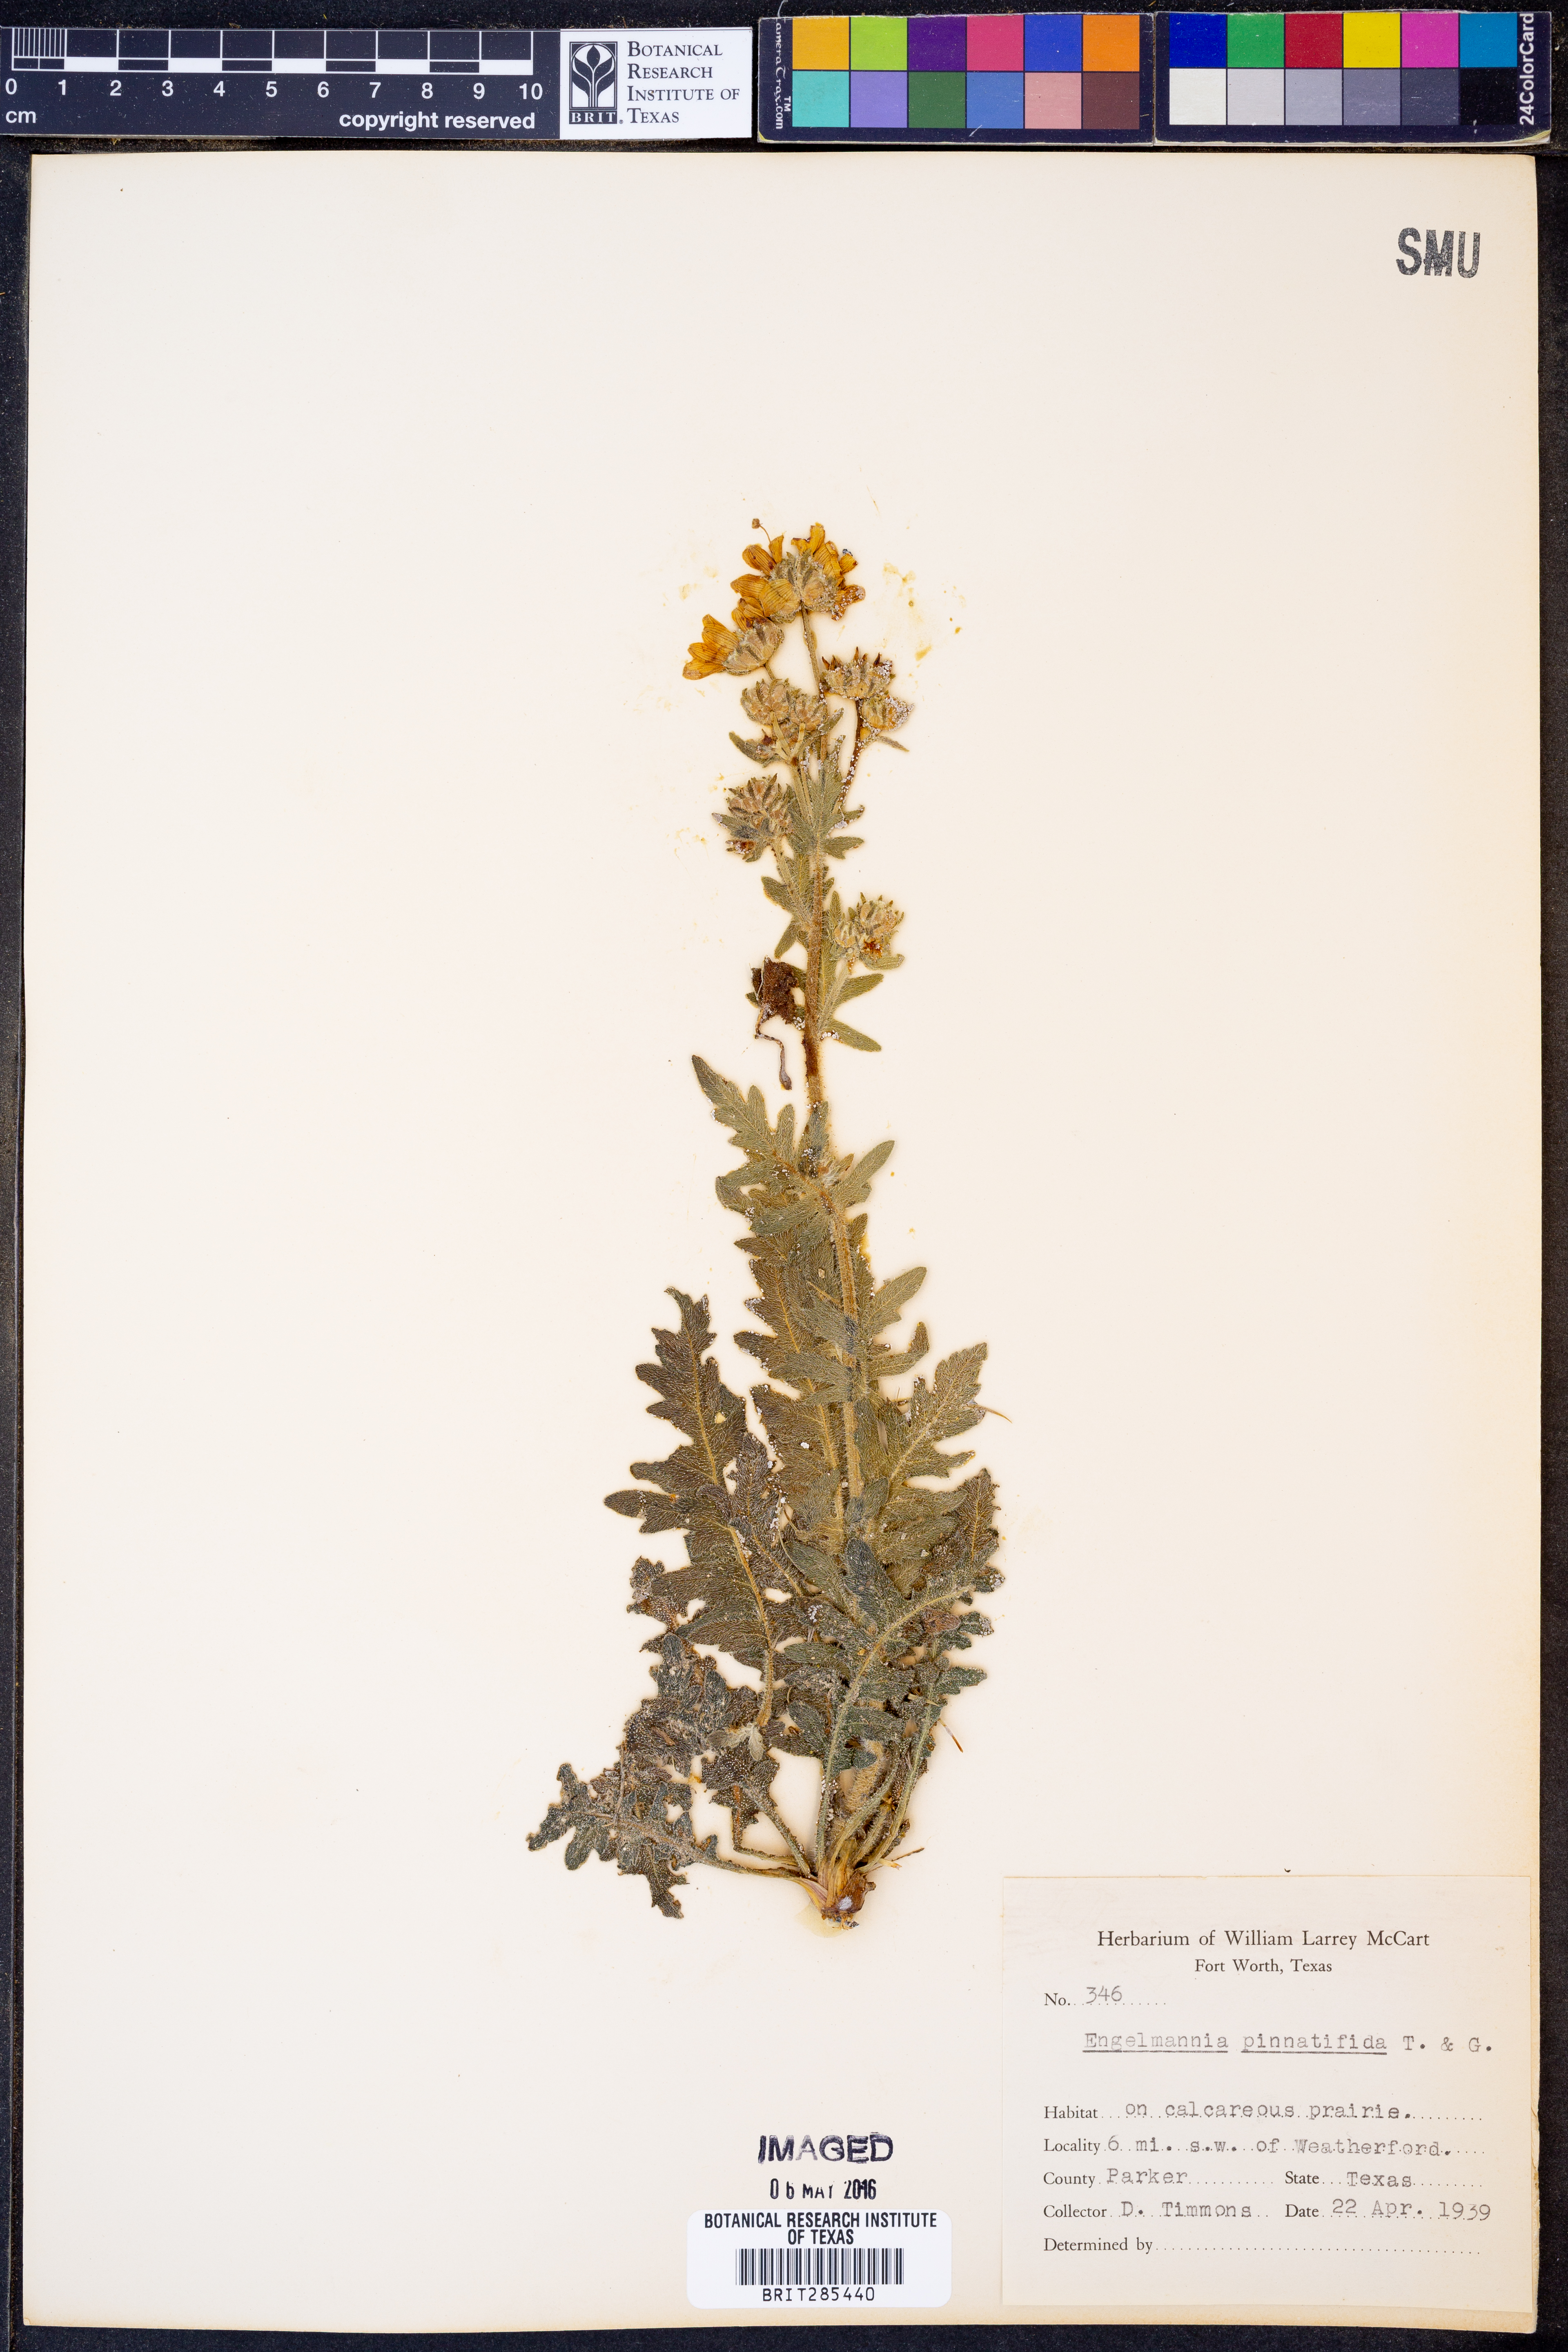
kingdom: Plantae
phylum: Tracheophyta
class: Magnoliopsida
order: Asterales
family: Asteraceae
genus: Engelmannia
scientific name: Engelmannia peristenia
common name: Engelmann's daisy
